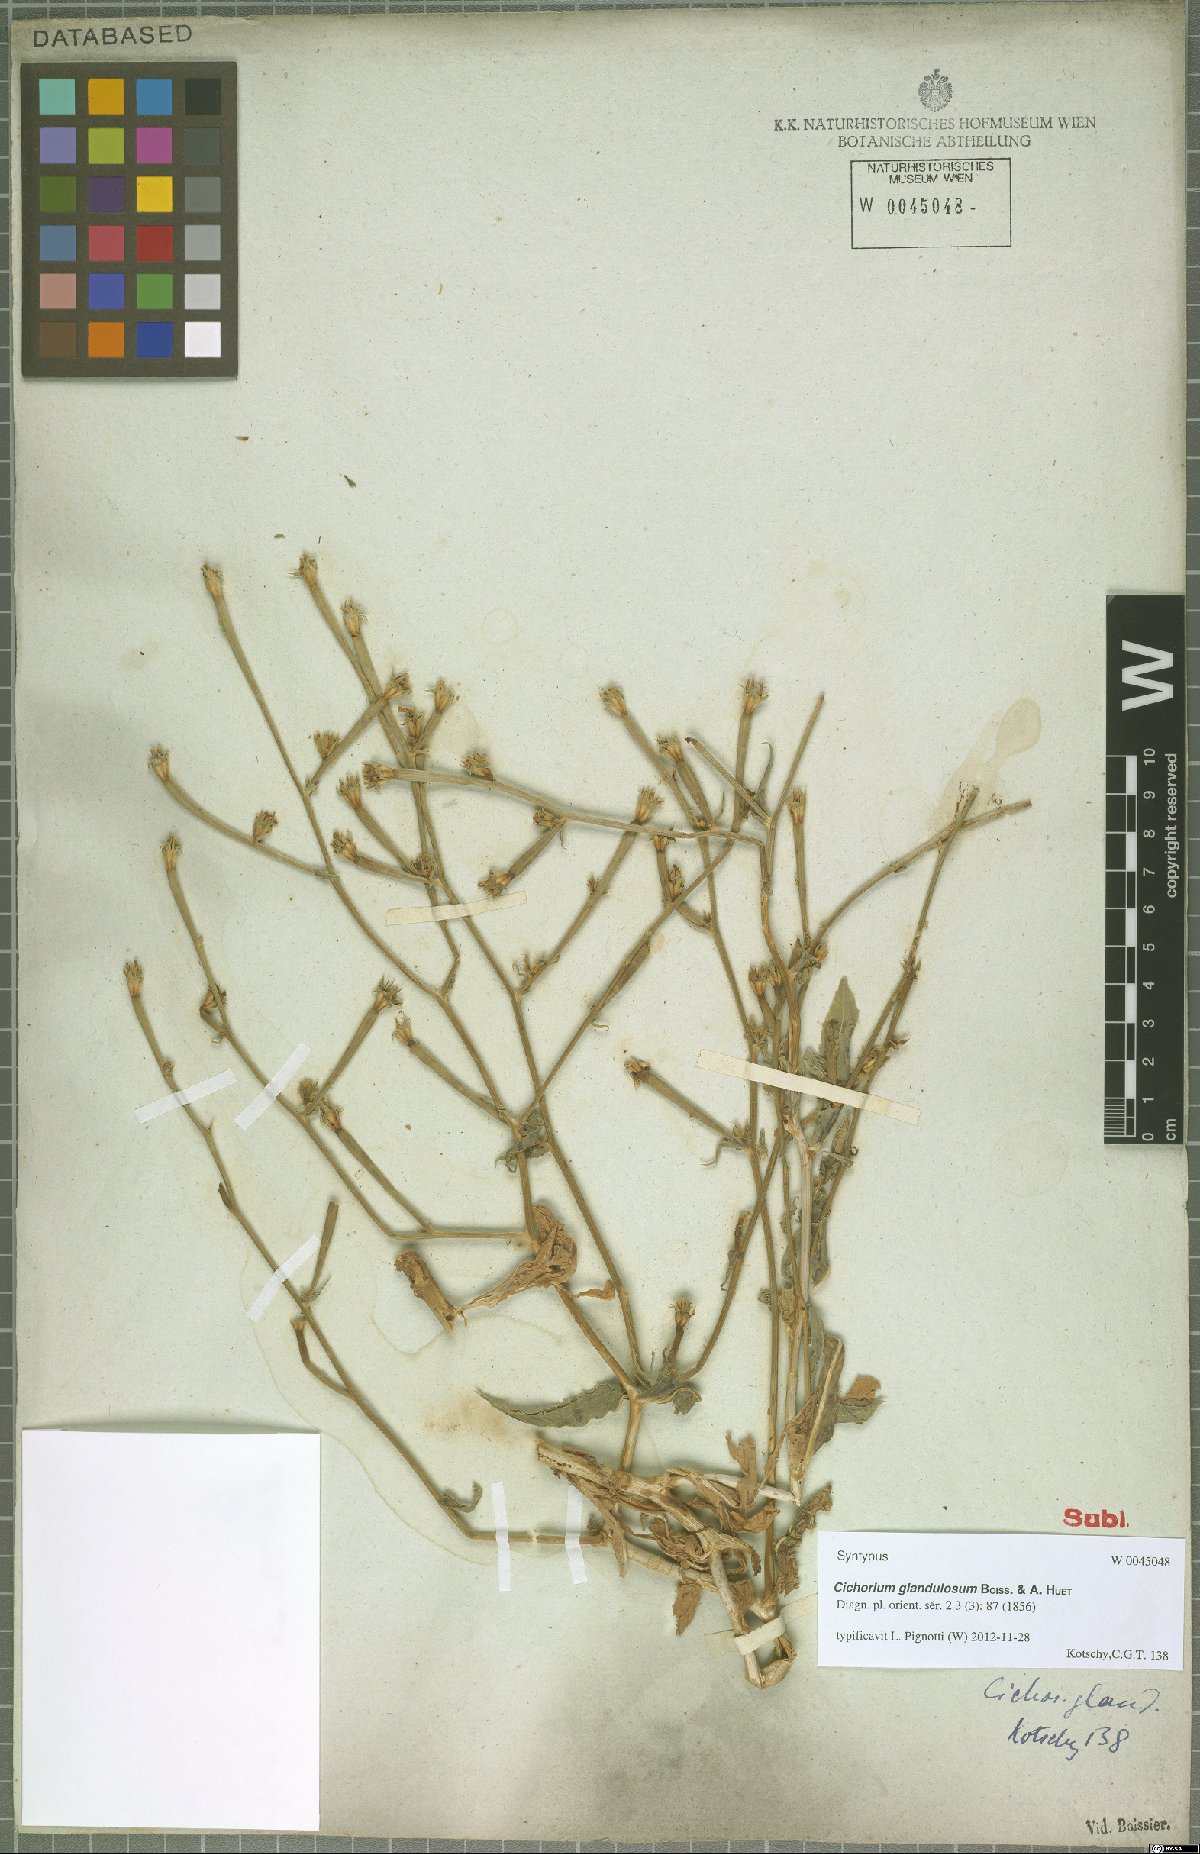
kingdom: Plantae
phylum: Tracheophyta
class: Magnoliopsida
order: Asterales
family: Asteraceae
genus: Cichorium
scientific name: Cichorium glandulosum
